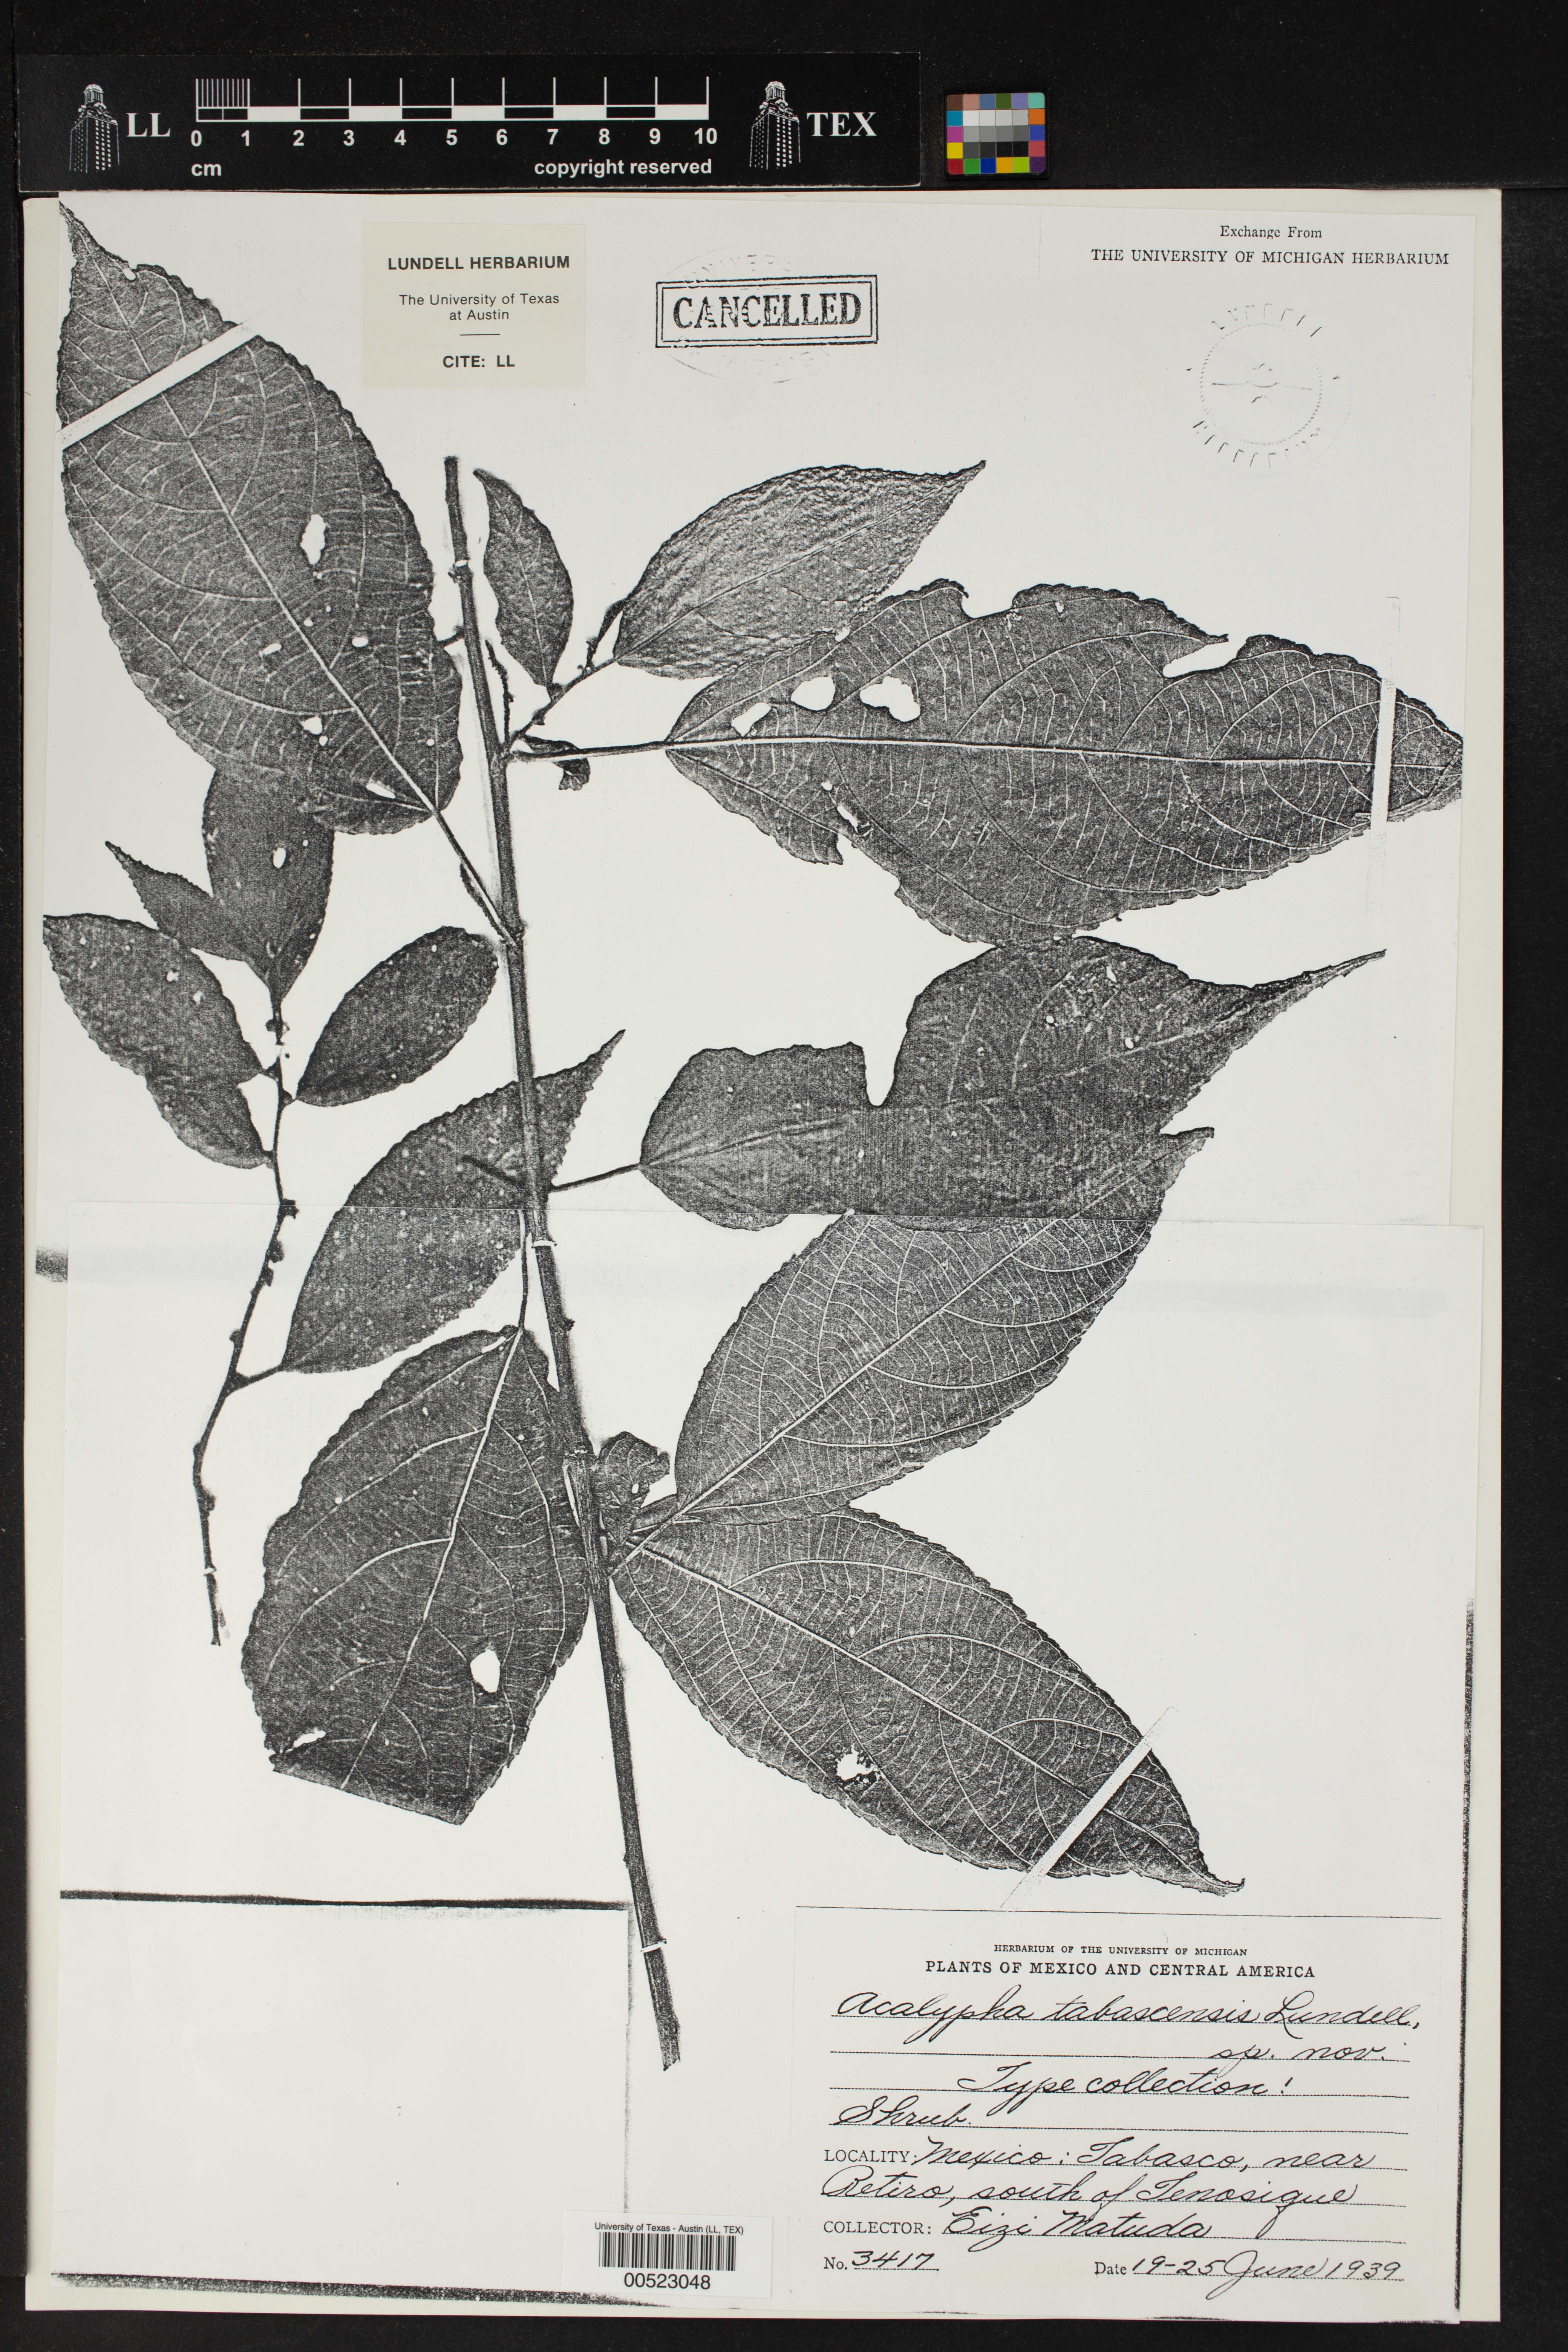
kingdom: Plantae
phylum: Tracheophyta
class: Magnoliopsida
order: Malpighiales
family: Euphorbiaceae
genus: Acalypha
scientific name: Acalypha diversifolia
